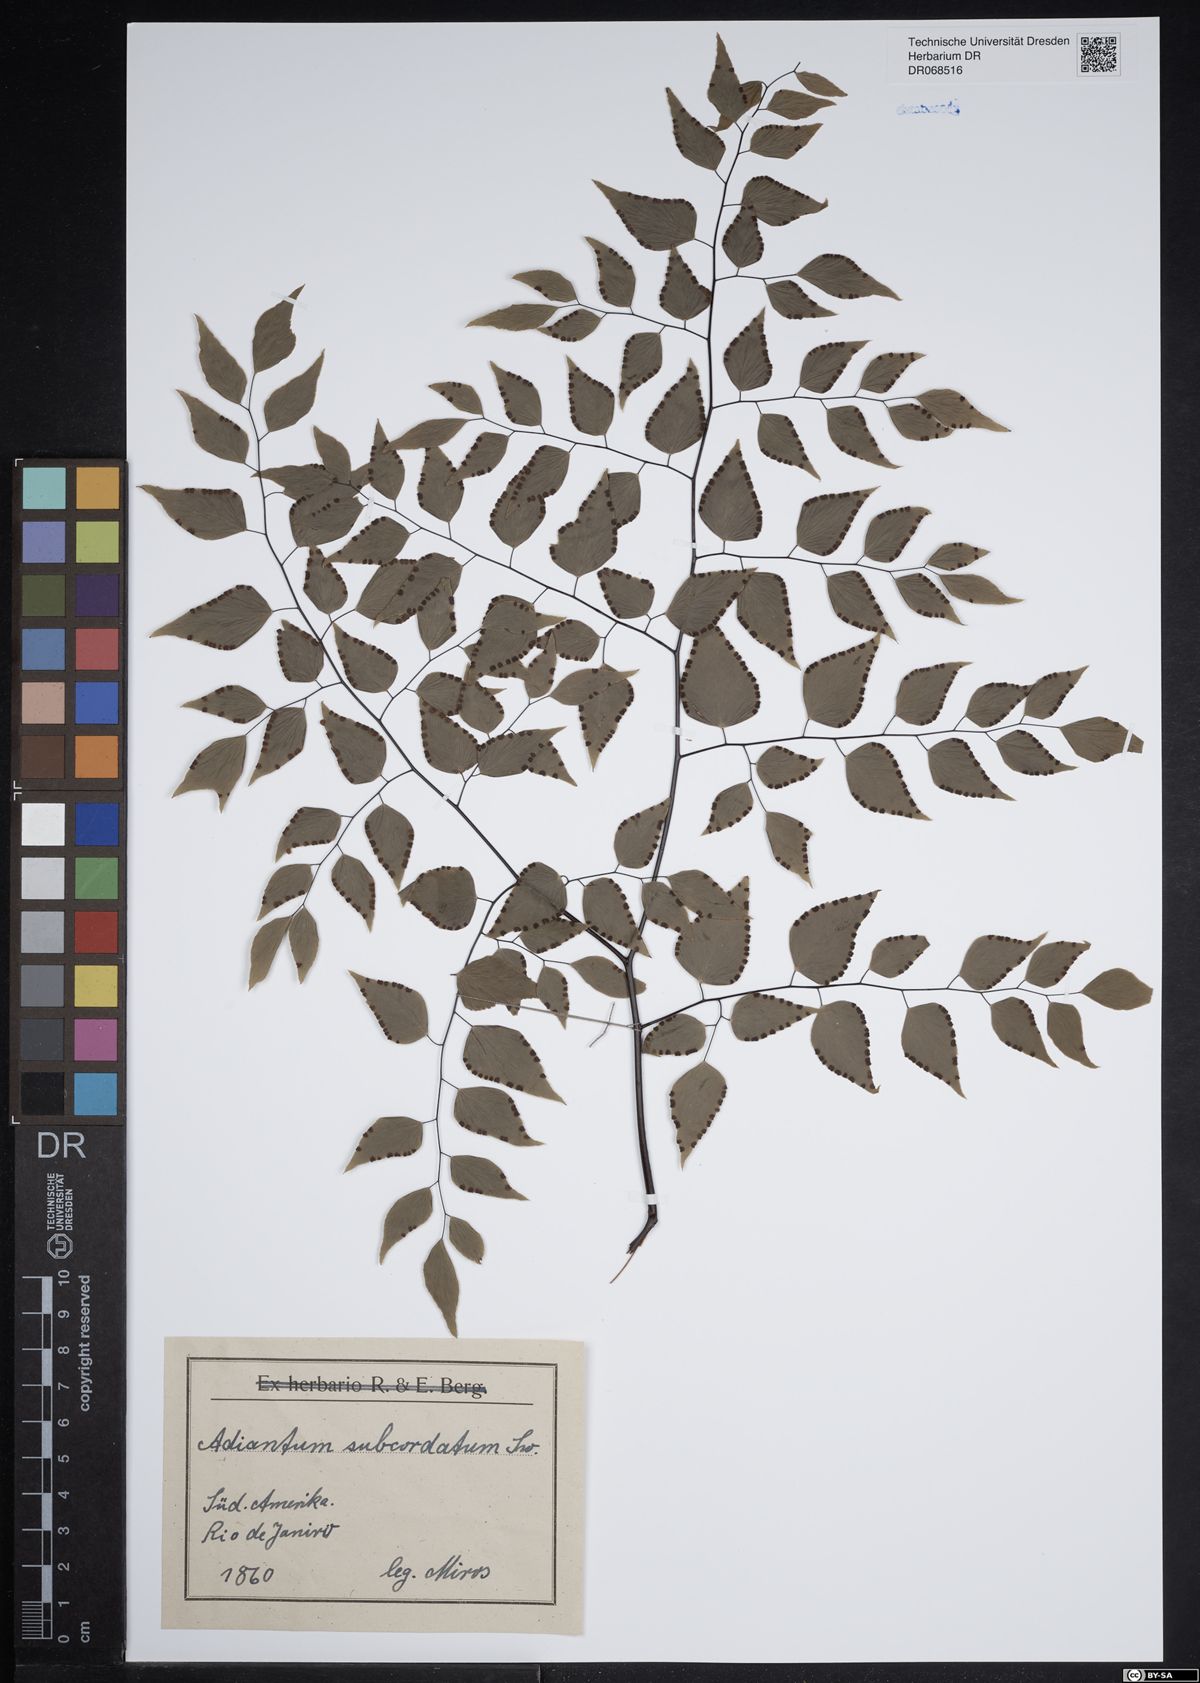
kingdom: Plantae
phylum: Tracheophyta
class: Polypodiopsida
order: Polypodiales
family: Pteridaceae
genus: Adiantum
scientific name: Adiantum subcordatum
